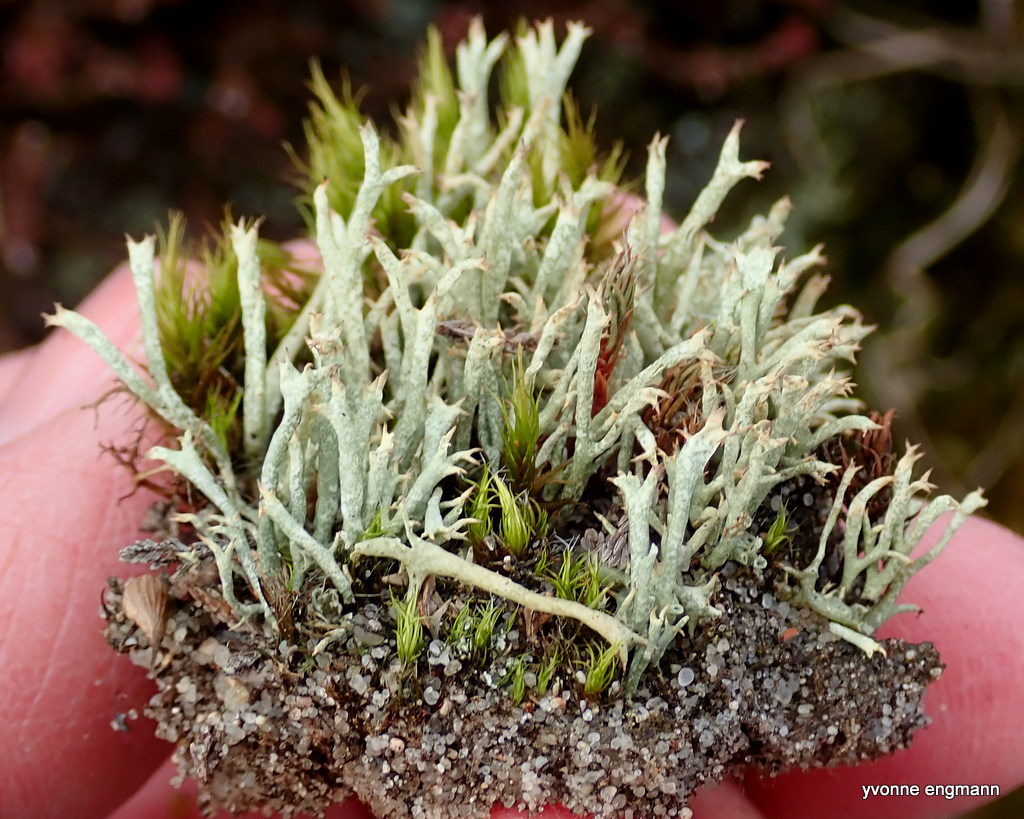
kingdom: Fungi
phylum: Ascomycota
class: Lecanoromycetes
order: Lecanorales
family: Cladoniaceae
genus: Cladonia
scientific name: Cladonia uncialis
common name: pigget bægerlav
